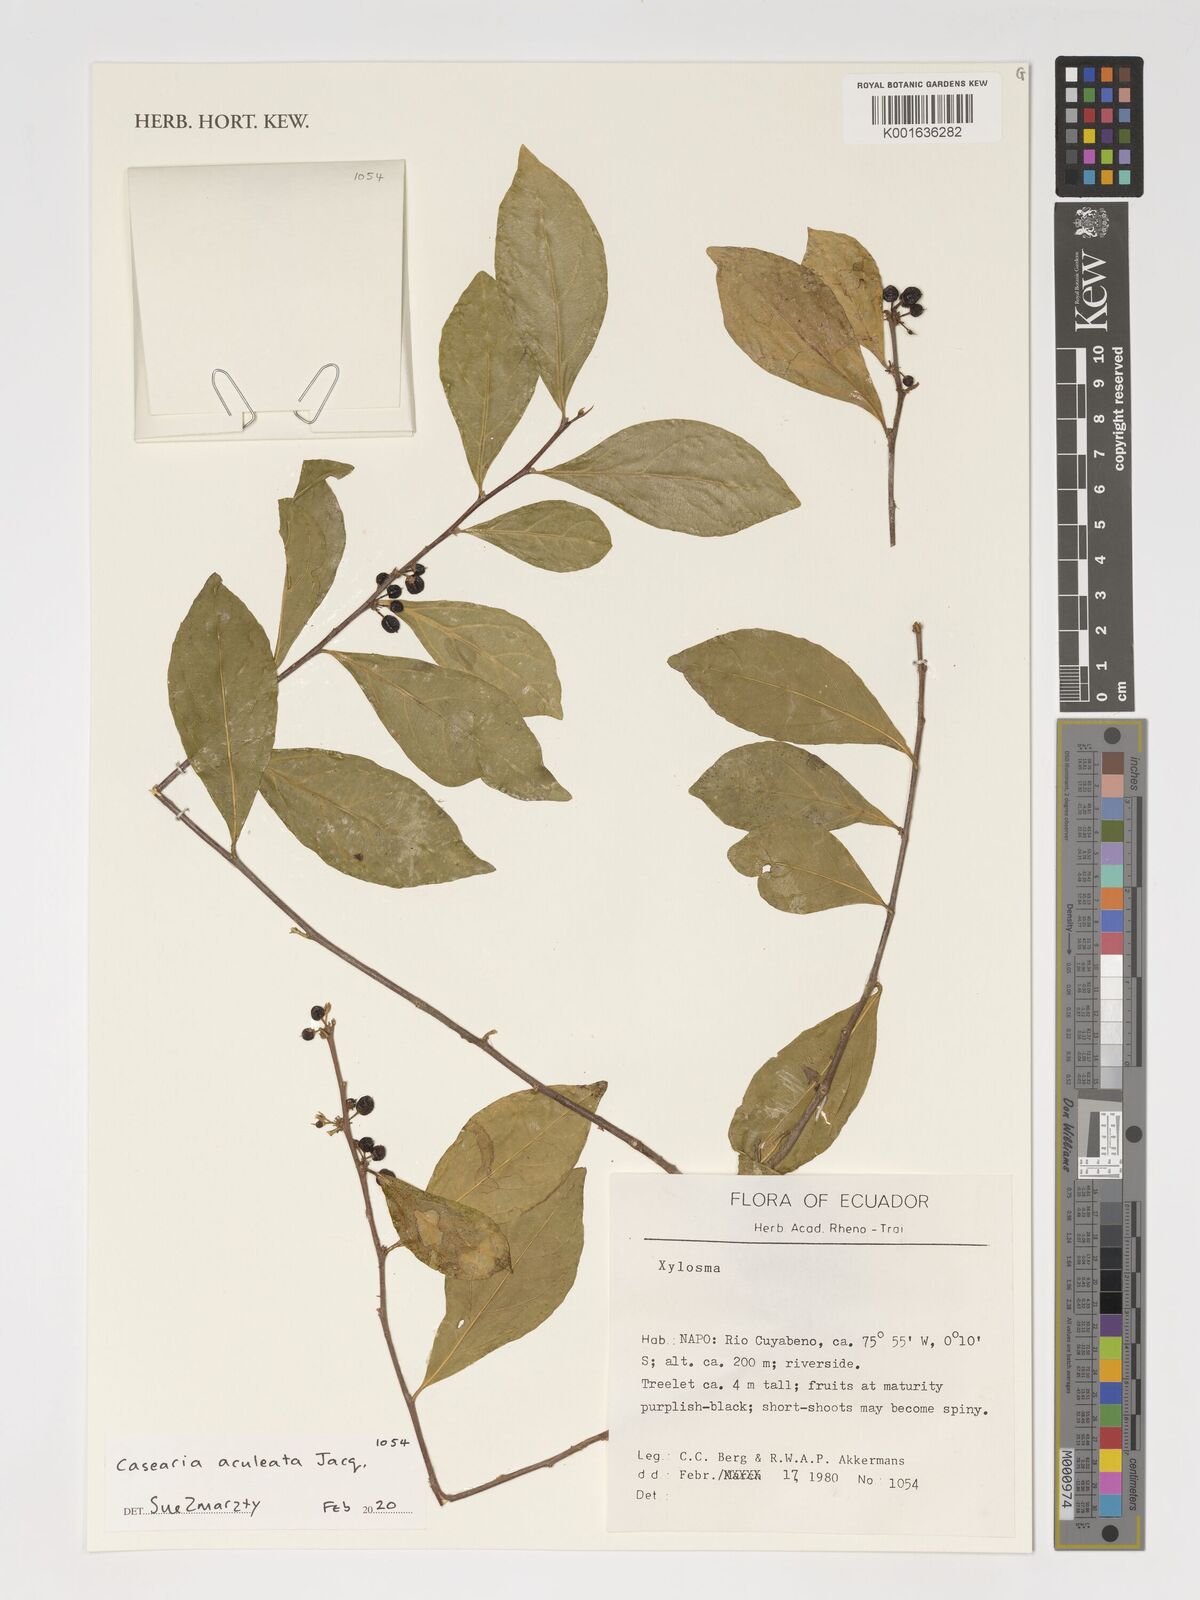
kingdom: Plantae
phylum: Tracheophyta
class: Magnoliopsida
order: Malpighiales
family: Salicaceae
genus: Casearia
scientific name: Casearia aculeata
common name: Cockspur
